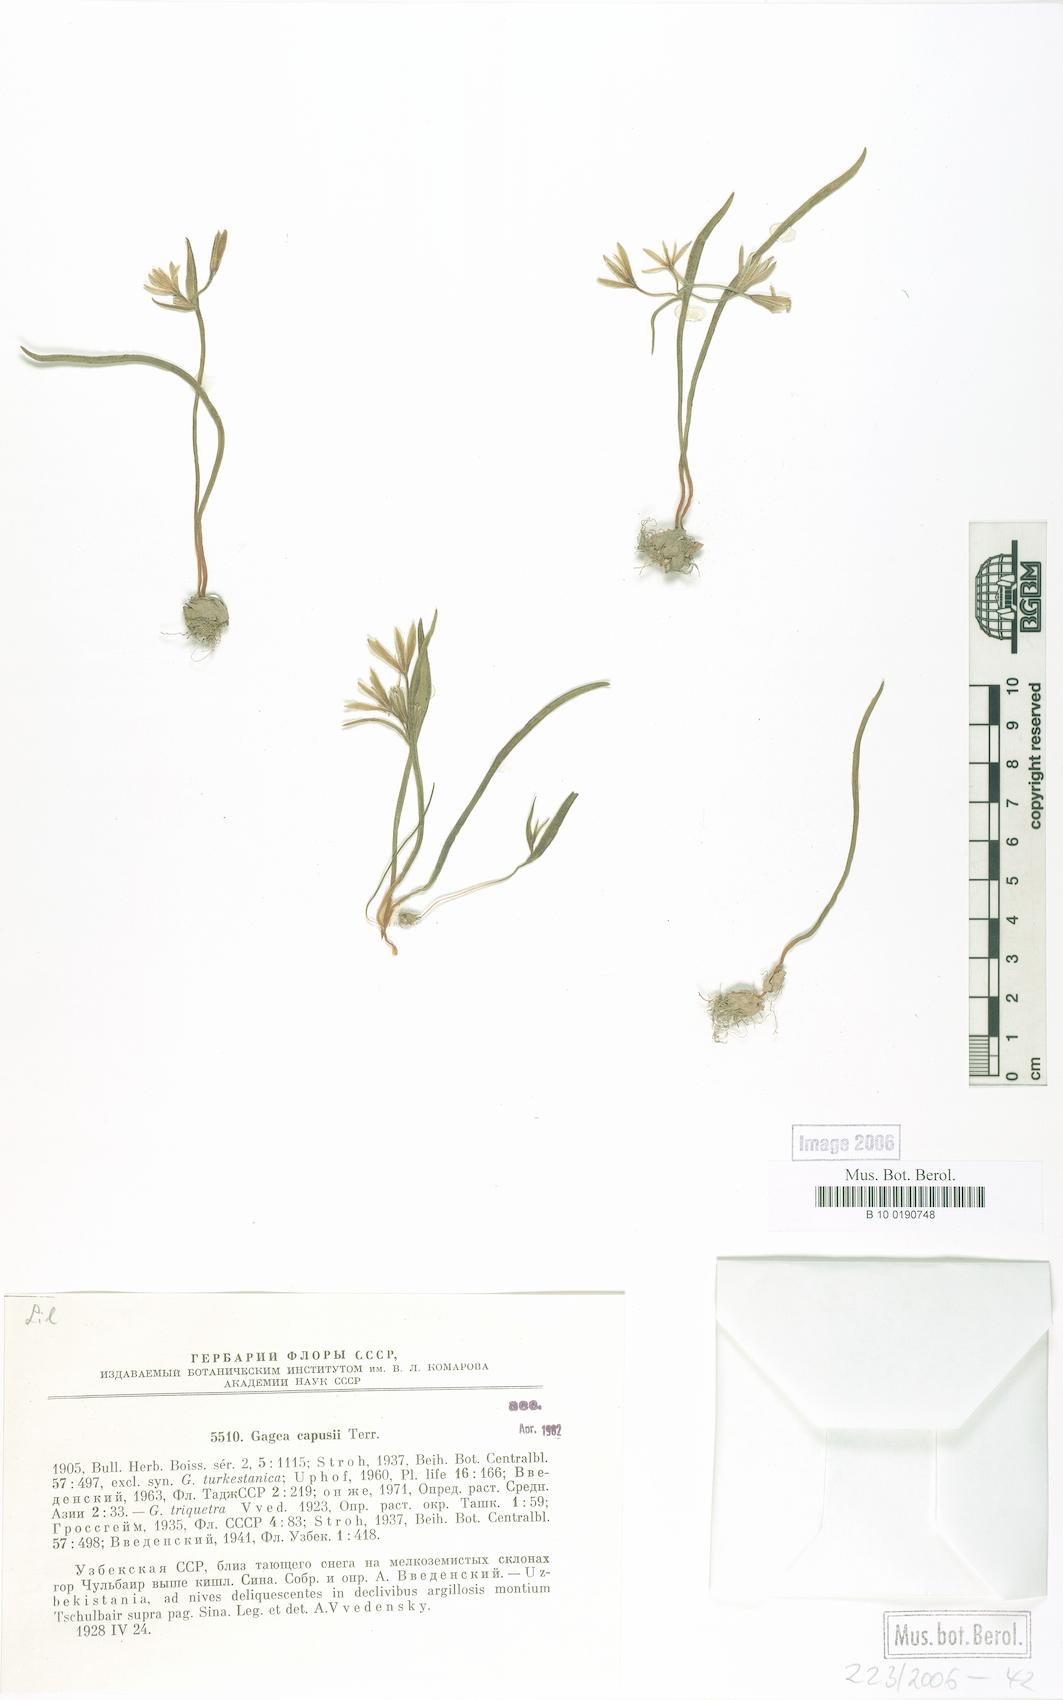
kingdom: Plantae
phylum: Tracheophyta
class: Liliopsida
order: Liliales
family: Liliaceae
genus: Gagea
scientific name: Gagea capusii
